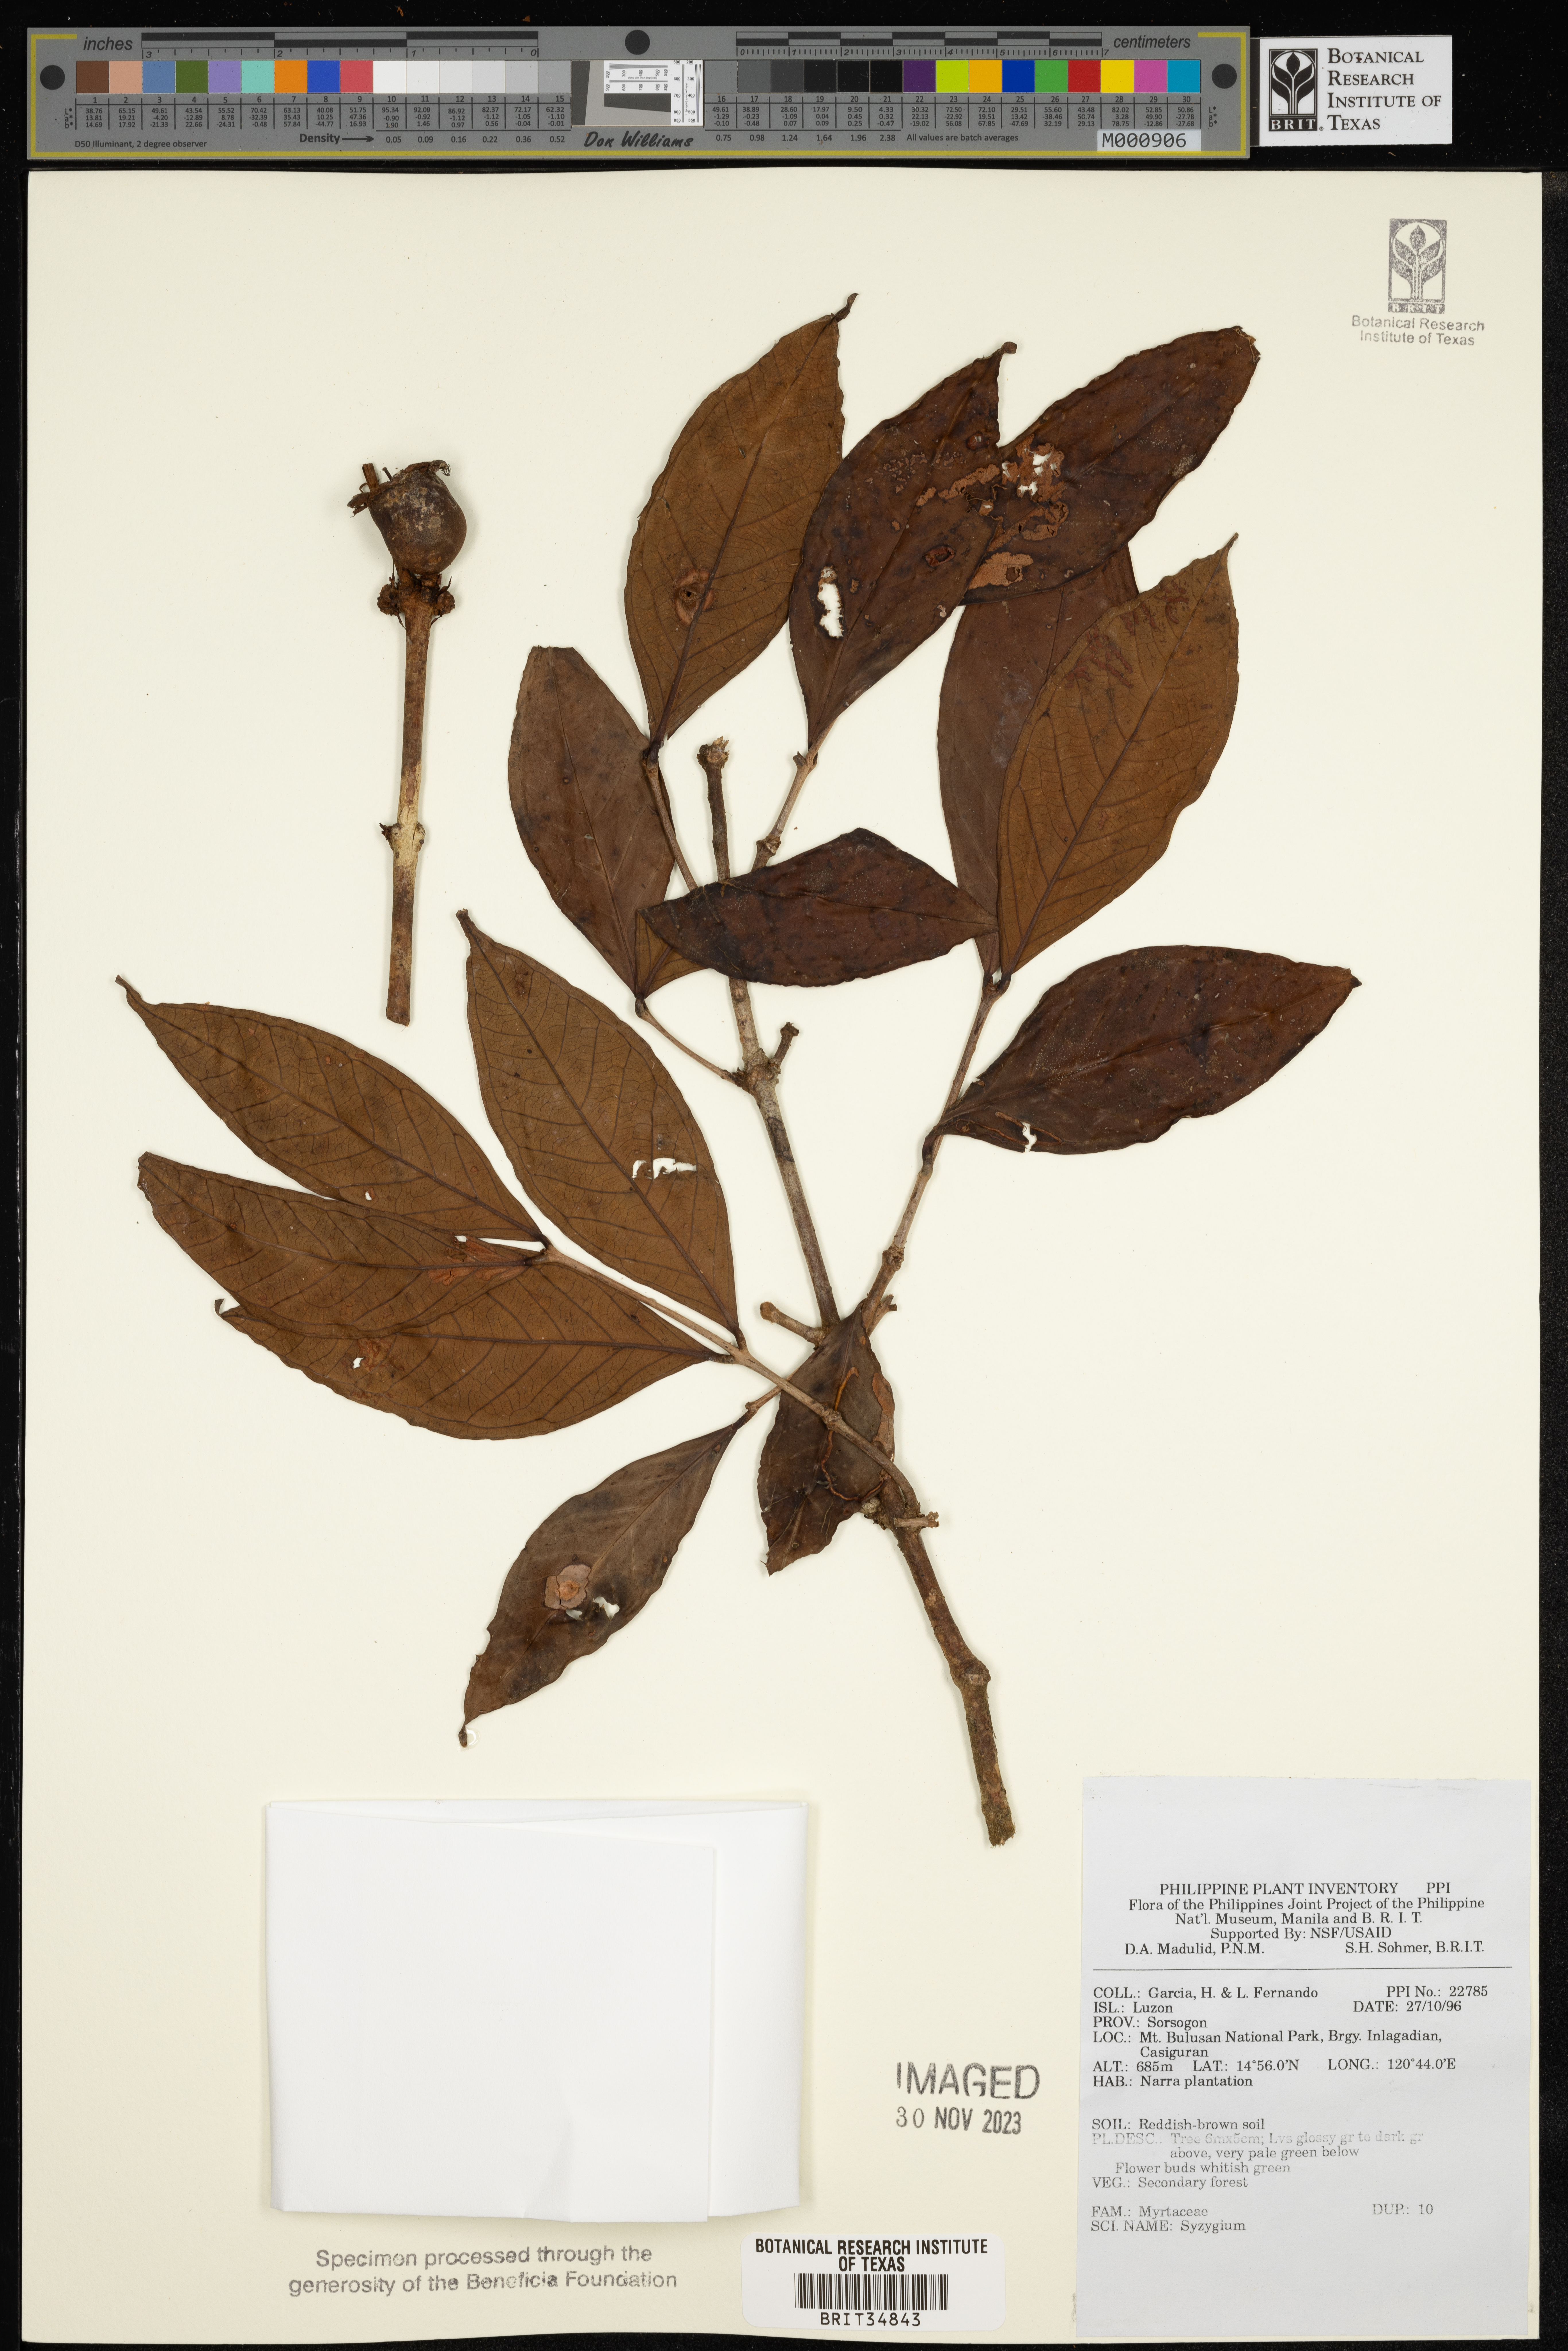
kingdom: Plantae
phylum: Tracheophyta
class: Magnoliopsida
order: Myrtales
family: Myrtaceae
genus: Syzygium
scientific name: Syzygium
